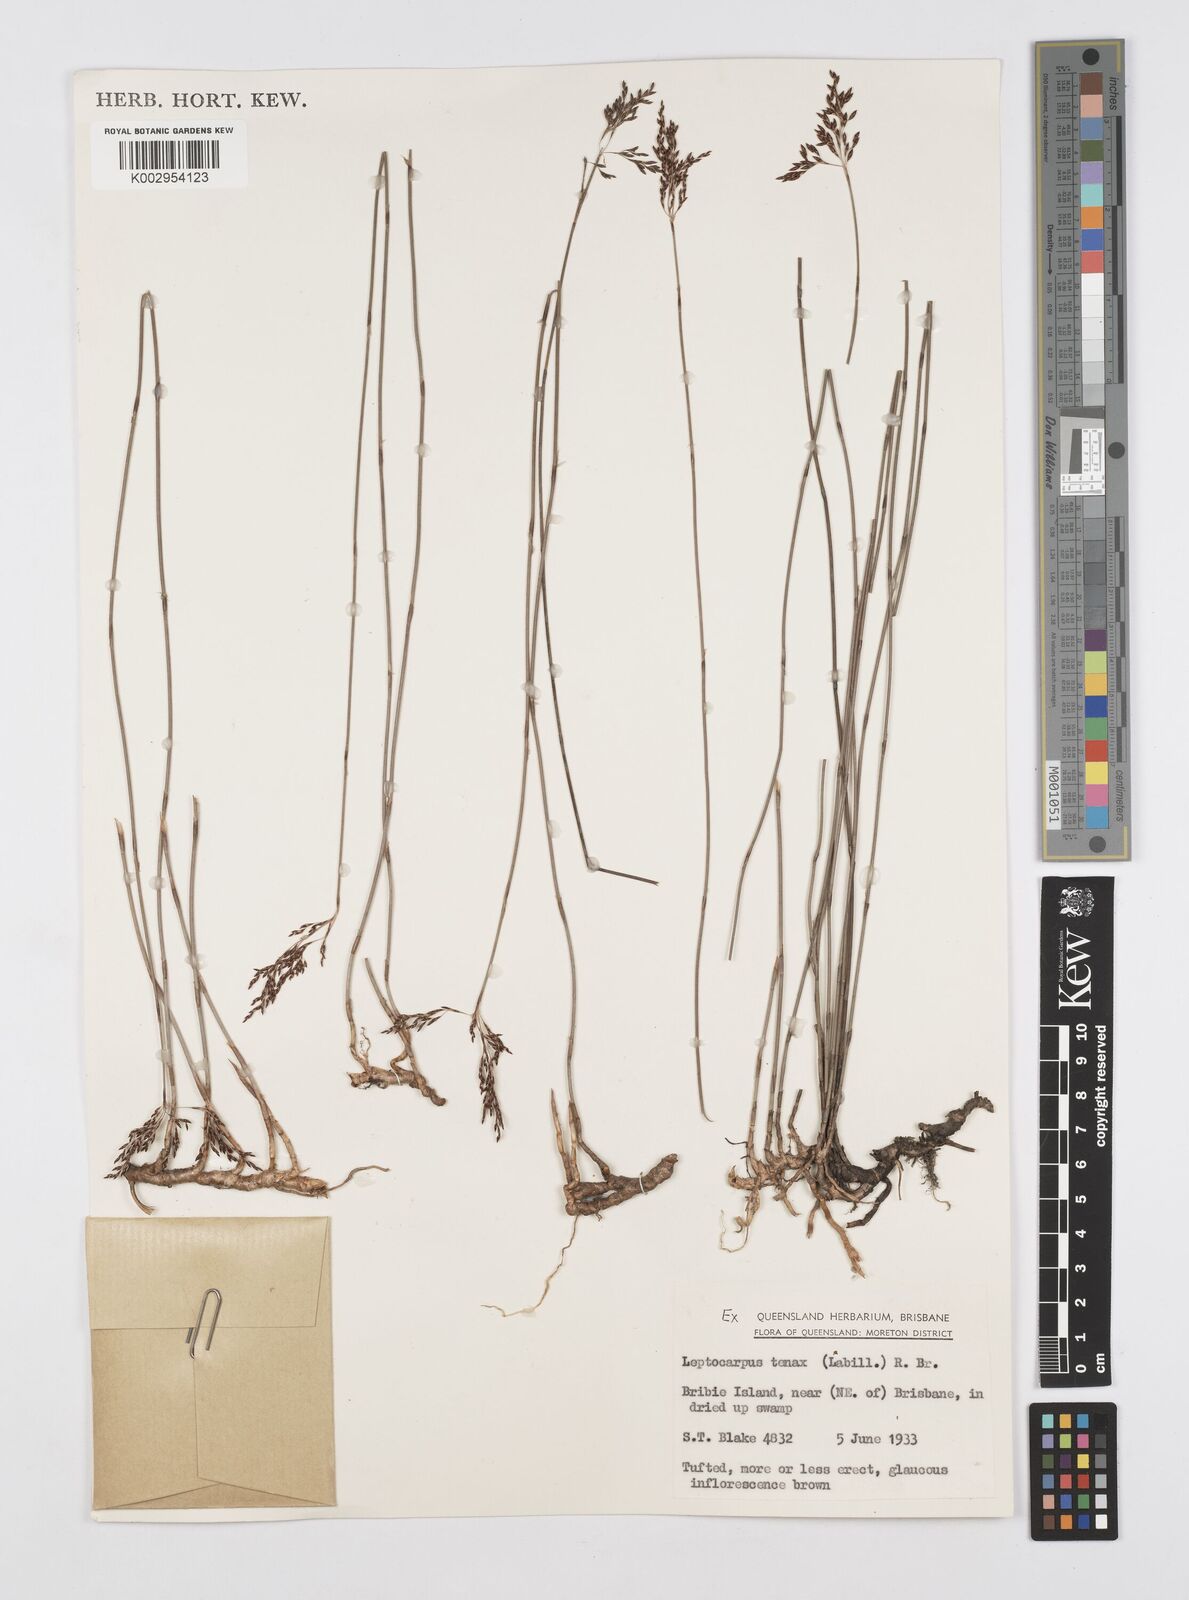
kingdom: Plantae
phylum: Tracheophyta
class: Liliopsida
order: Poales
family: Restionaceae
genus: Leptocarpus
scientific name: Leptocarpus tenax
